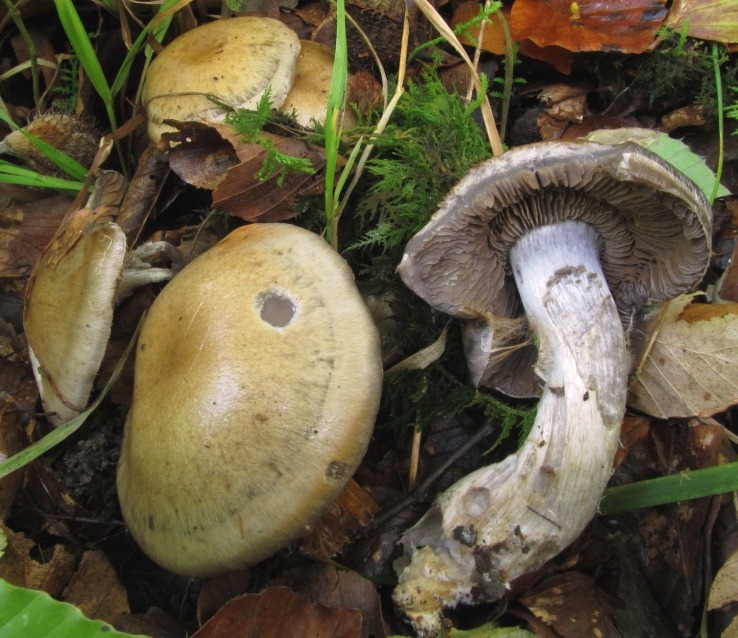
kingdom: Fungi
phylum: Basidiomycota
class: Agaricomycetes
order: Agaricales
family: Cortinariaceae
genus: Cortinarius
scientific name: Cortinarius
